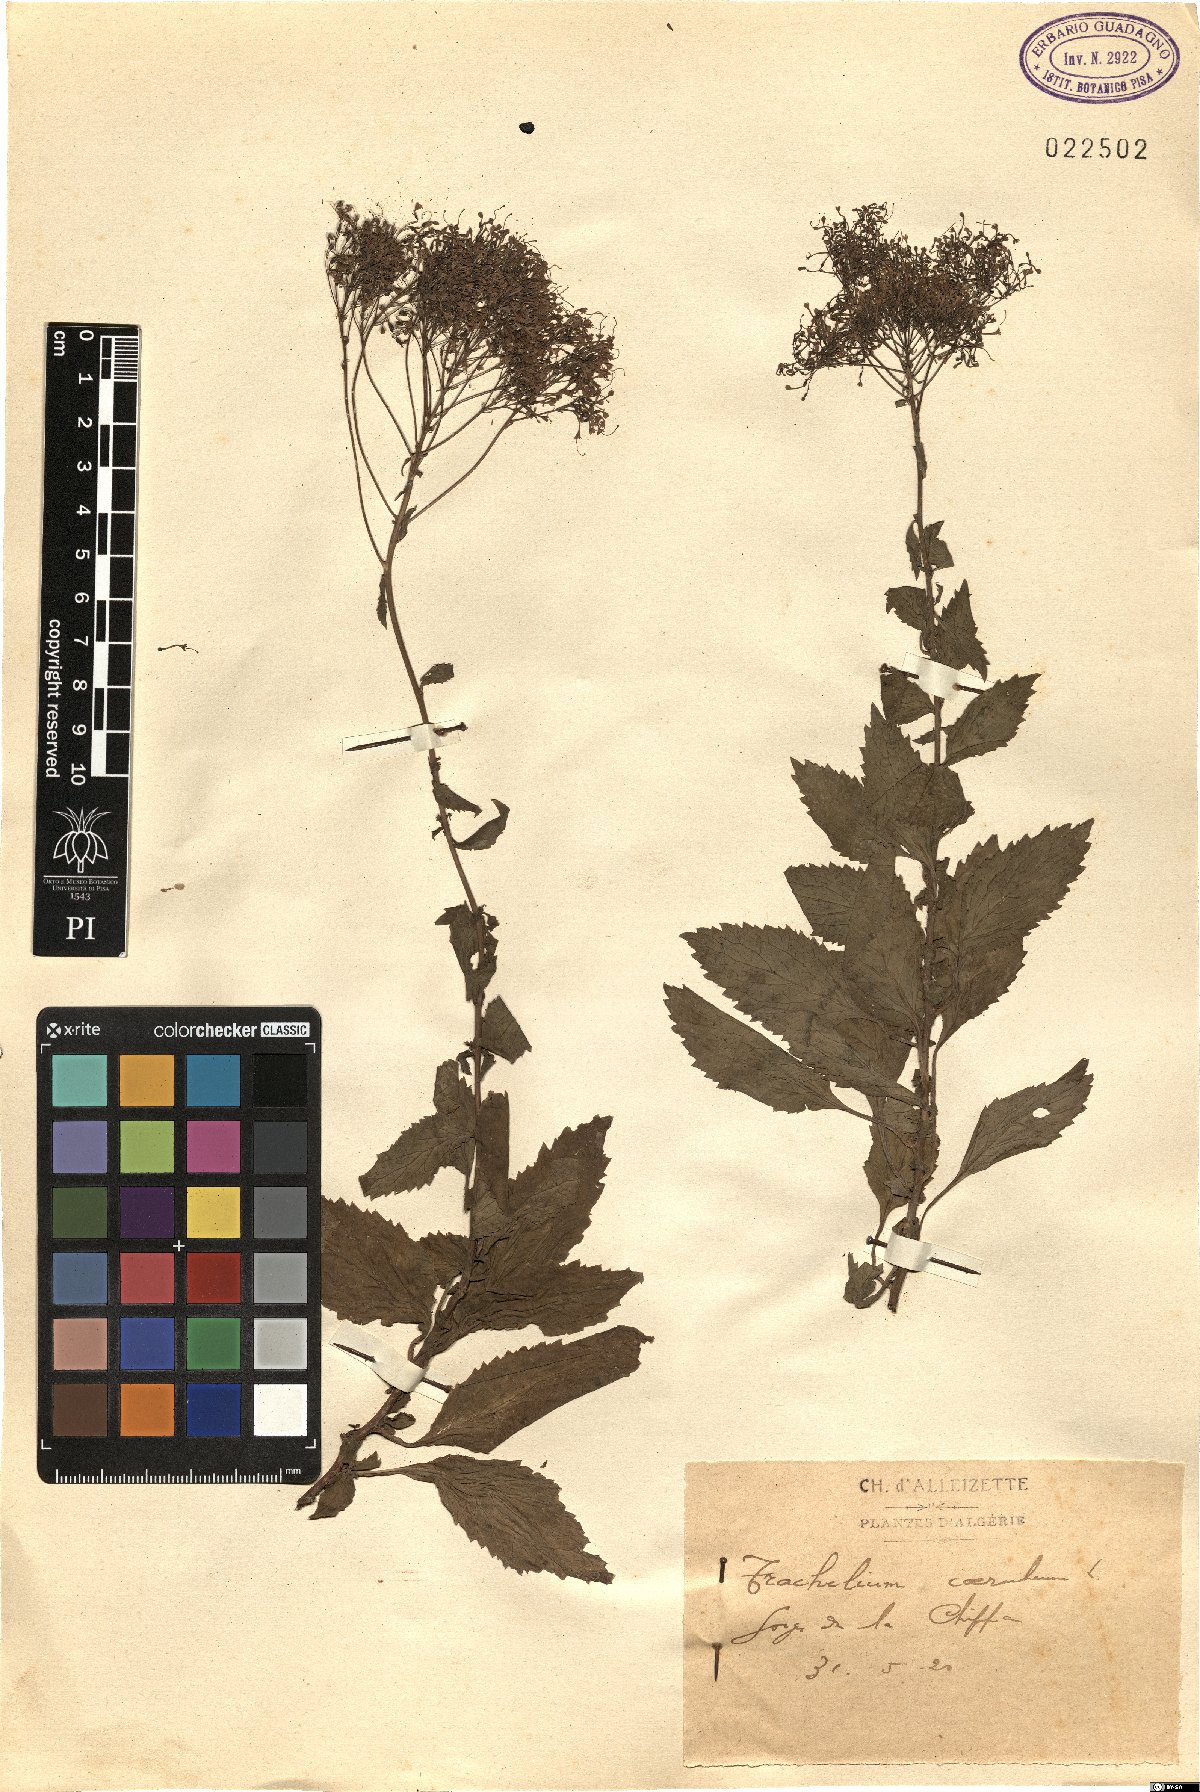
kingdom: Plantae
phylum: Tracheophyta
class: Magnoliopsida
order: Asterales
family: Campanulaceae
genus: Trachelium
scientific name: Trachelium caeruleum
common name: Throatwort
